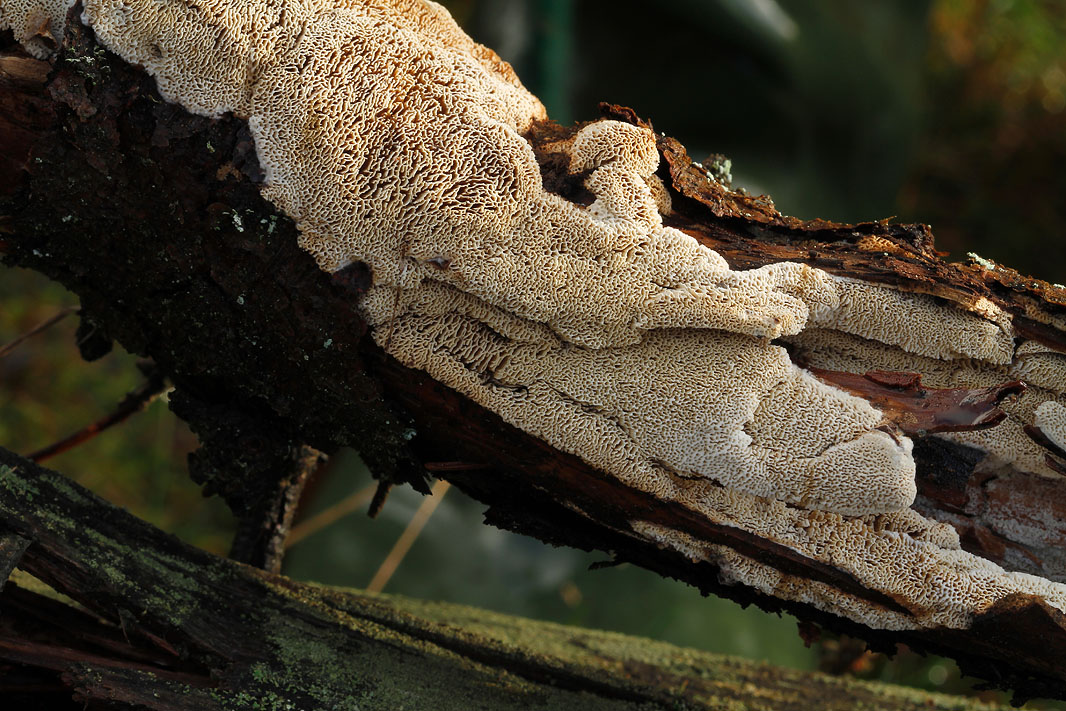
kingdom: Fungi
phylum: Basidiomycota
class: Agaricomycetes
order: Polyporales
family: Fomitopsidaceae
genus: Antrodia
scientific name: Antrodia sinuosa
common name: tømmer-sejporesvamp
